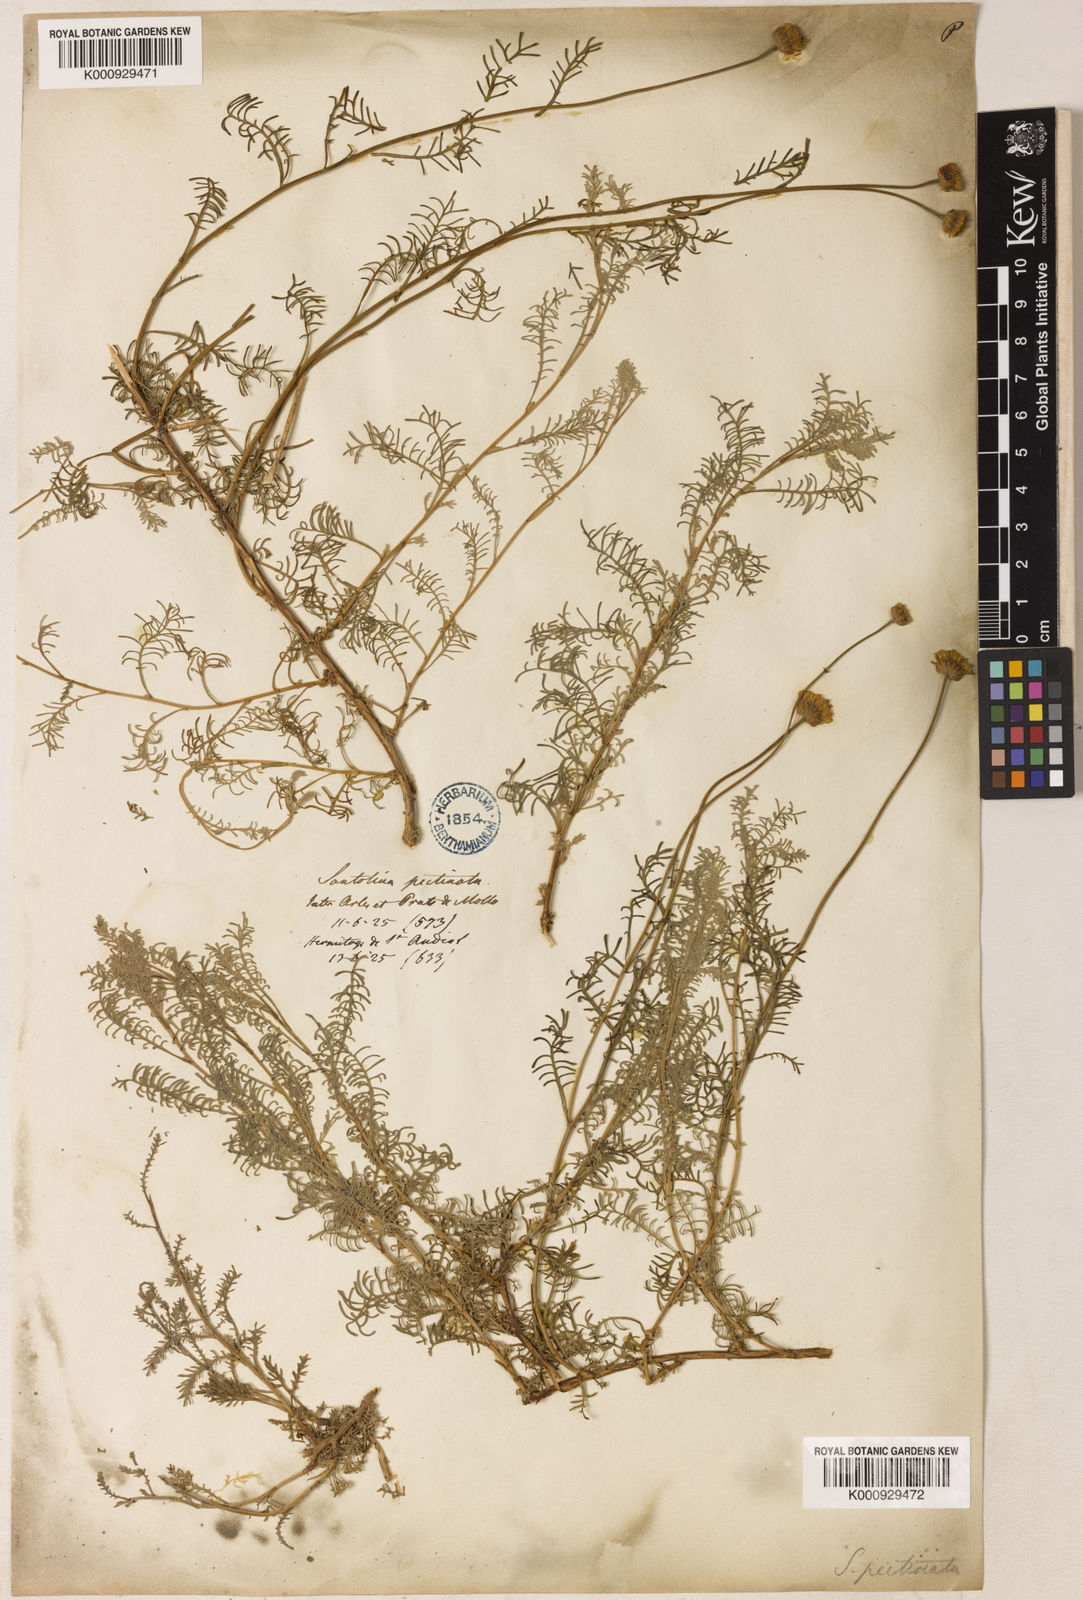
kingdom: Plantae
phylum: Tracheophyta
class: Magnoliopsida
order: Asterales
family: Asteraceae
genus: Santolina
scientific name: Santolina chamaecyparissus
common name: Lavender-cotton
